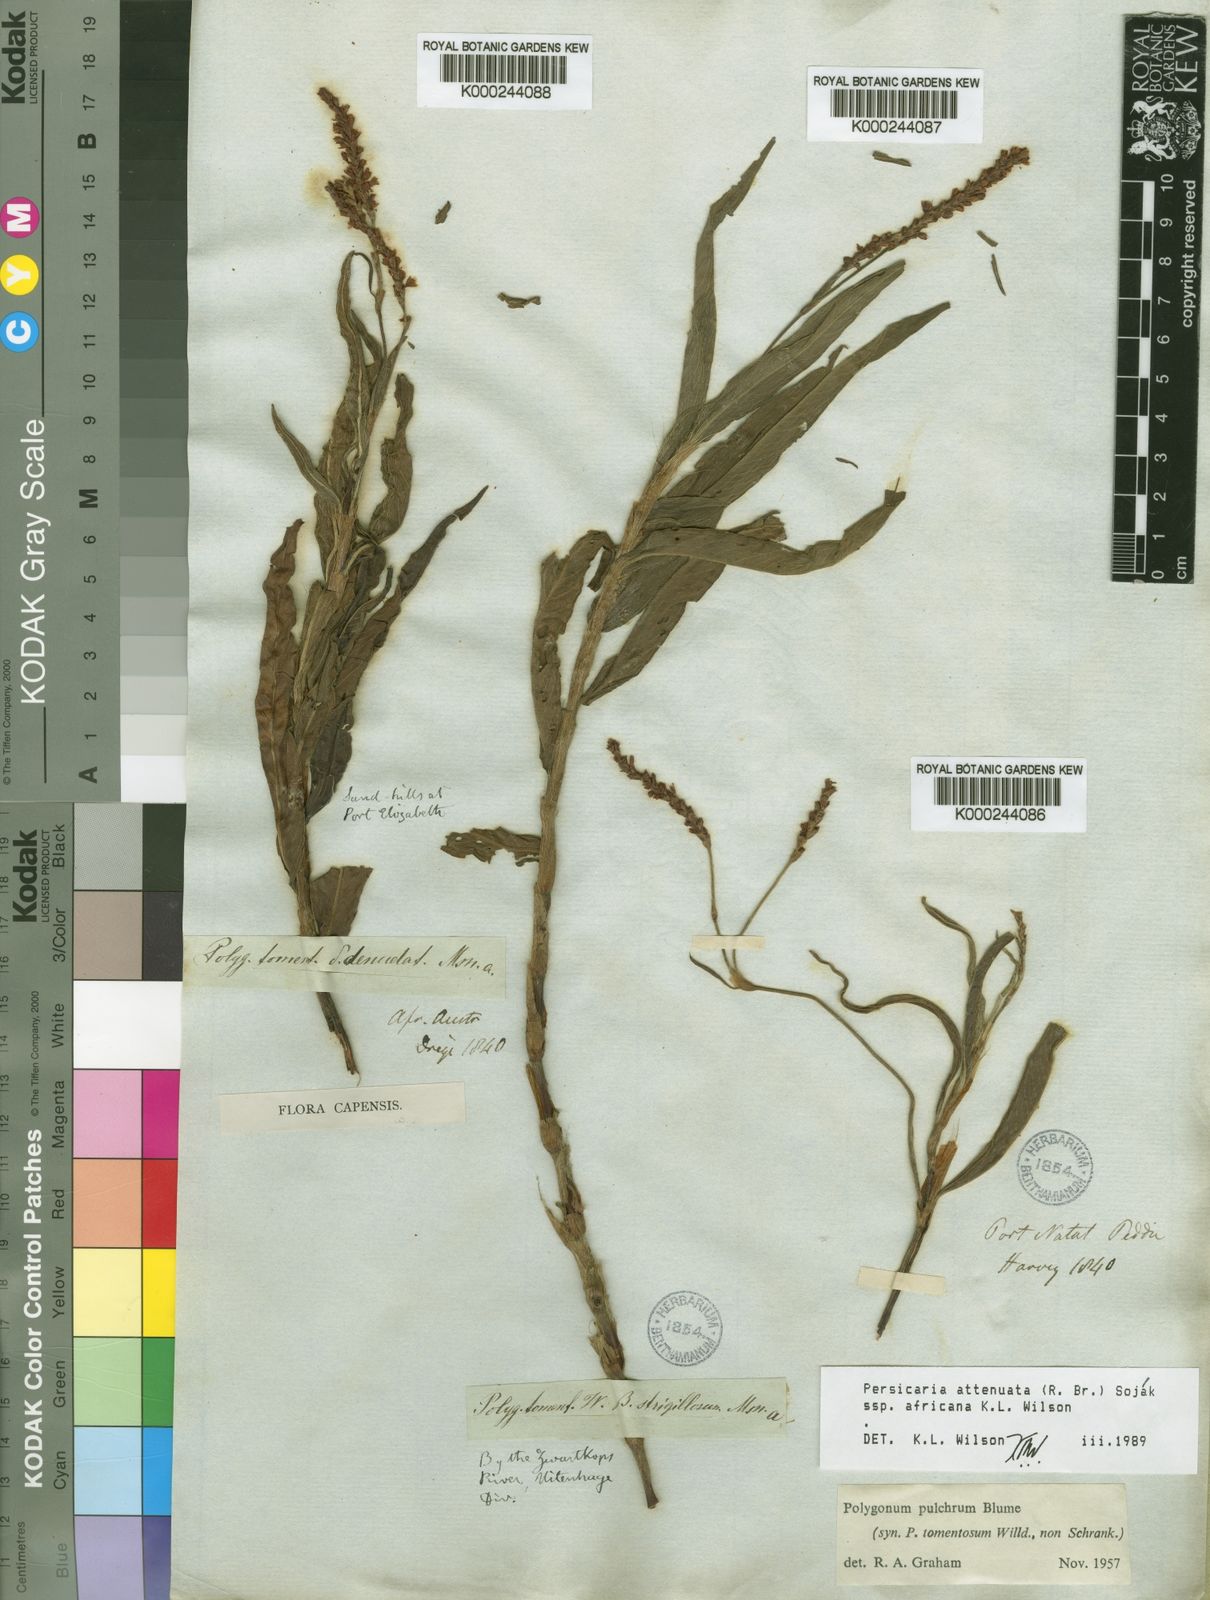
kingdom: Plantae
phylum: Tracheophyta
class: Magnoliopsida
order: Caryophyllales
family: Polygonaceae
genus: Persicaria
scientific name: Persicaria
